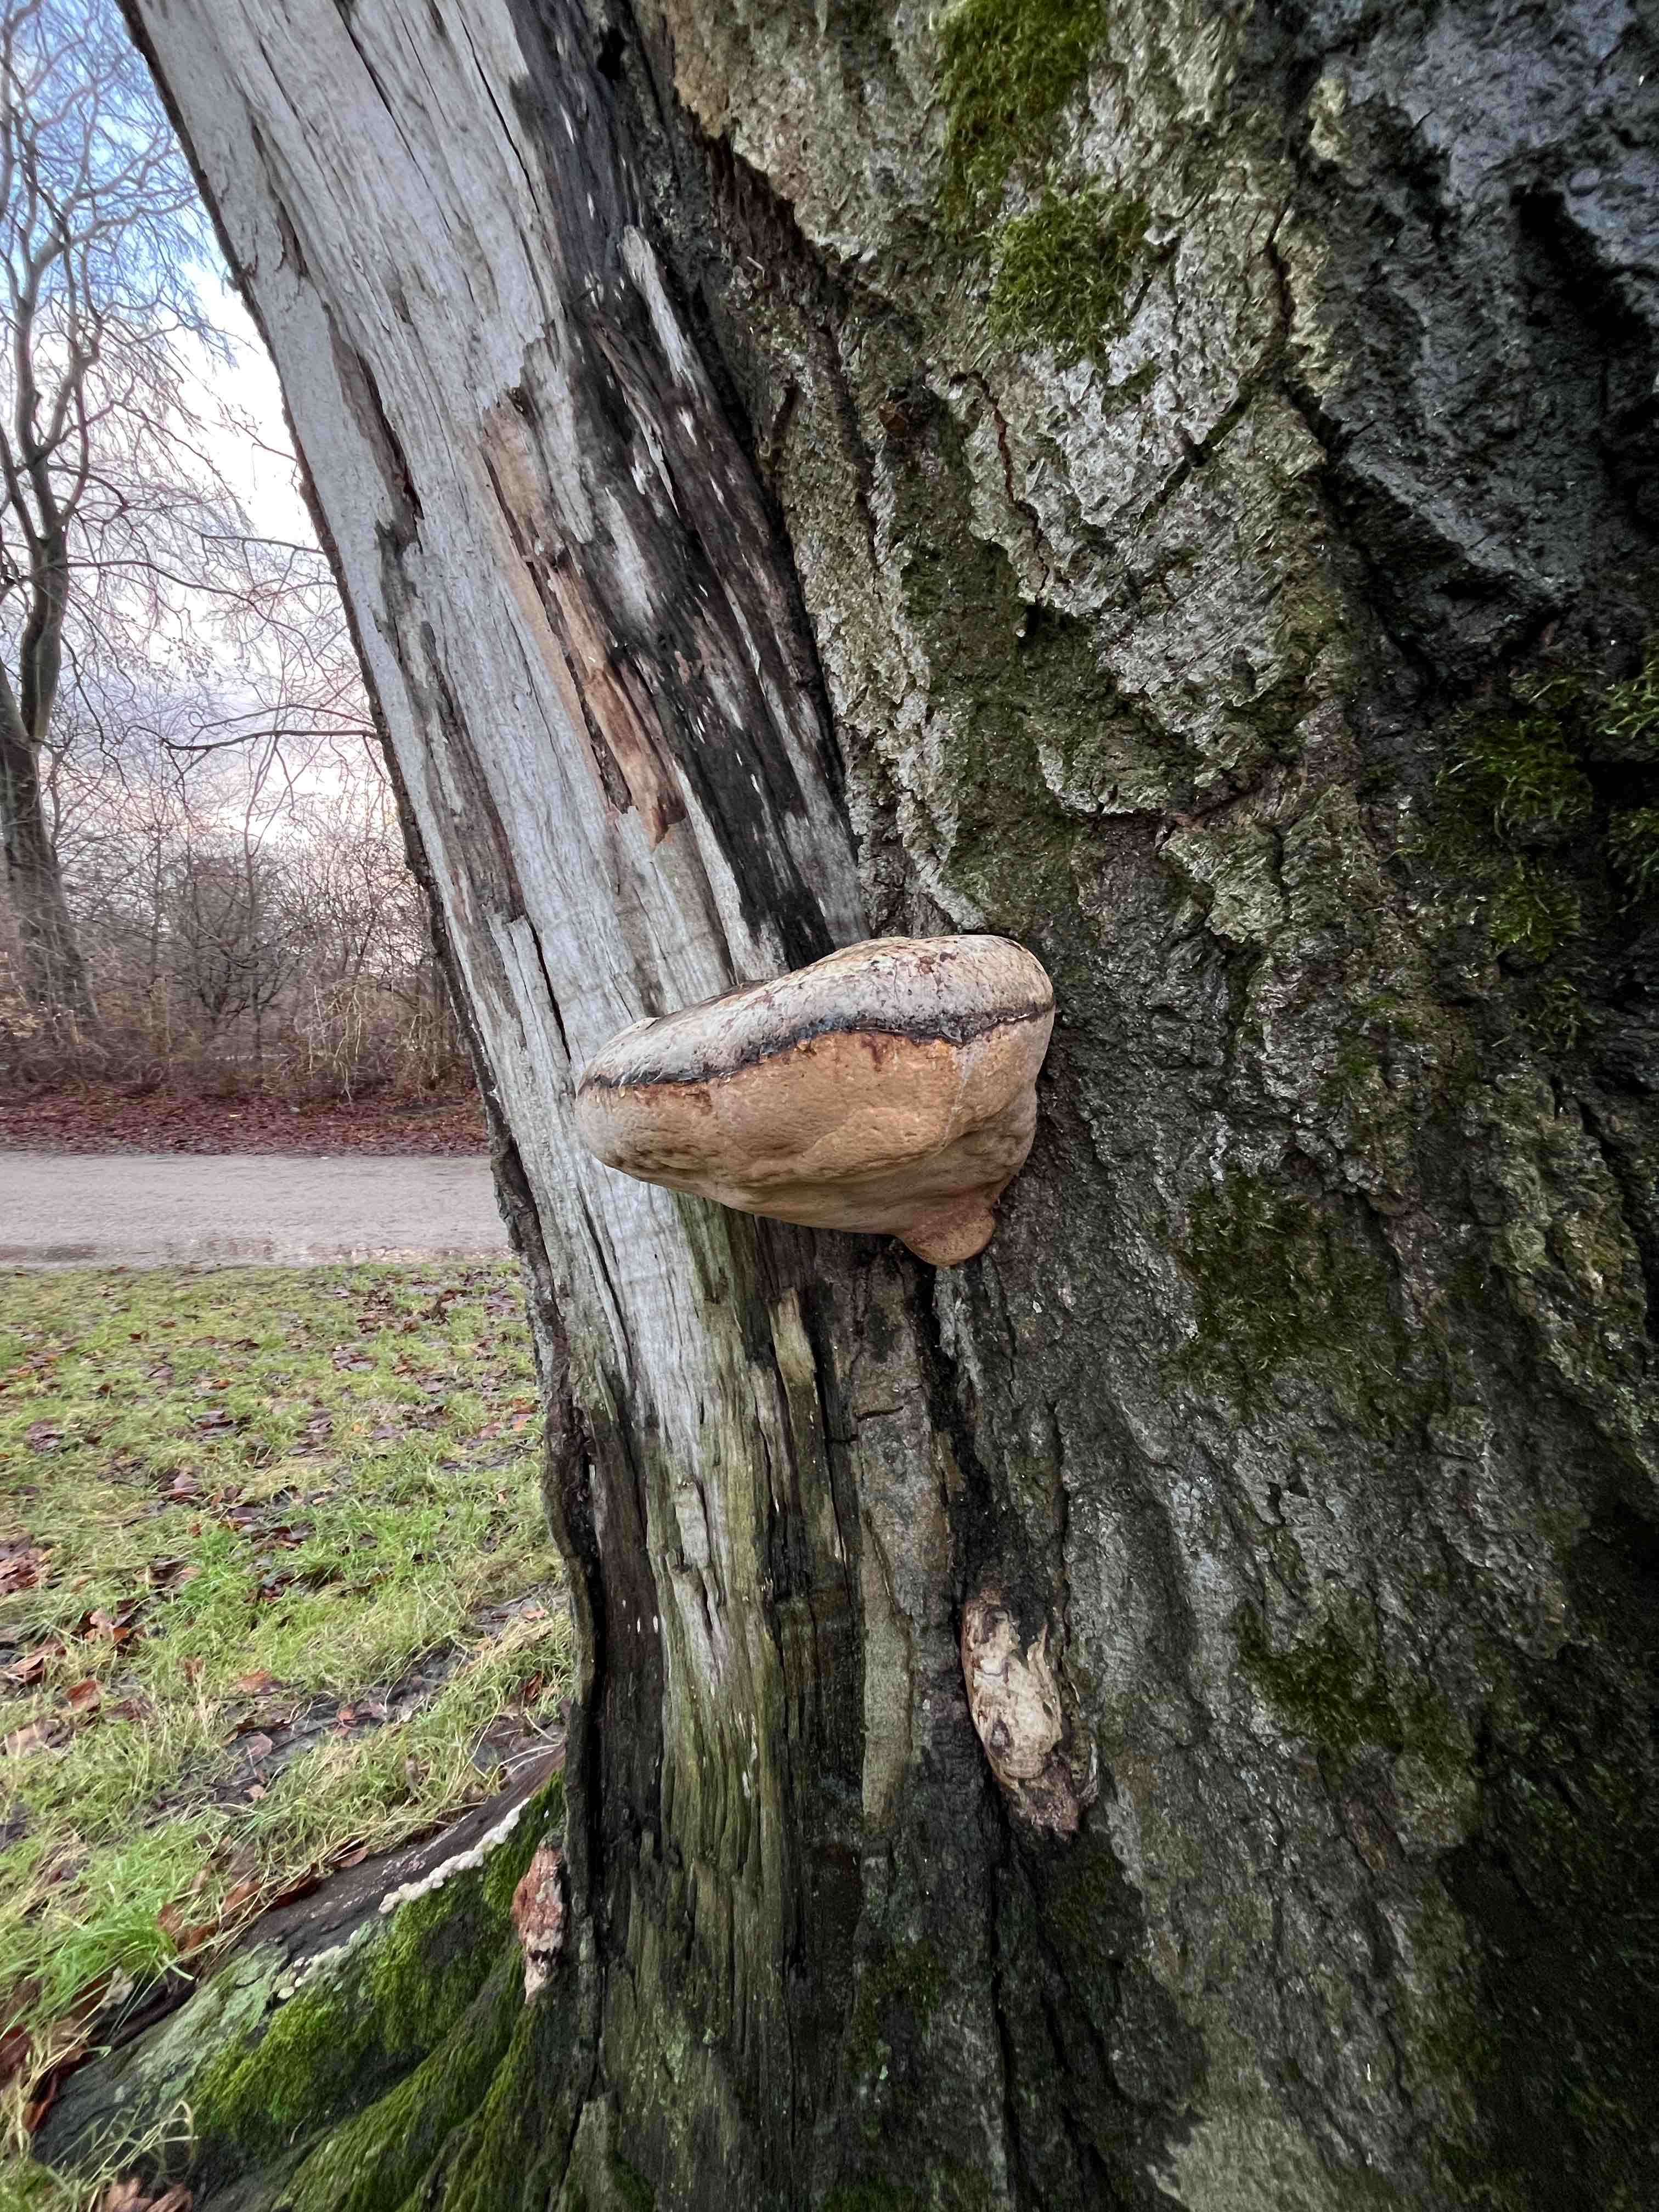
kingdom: Fungi
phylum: Basidiomycota
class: Agaricomycetes
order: Polyporales
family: Polyporaceae
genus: Fomes
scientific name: Fomes fomentarius
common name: tøndersvamp
